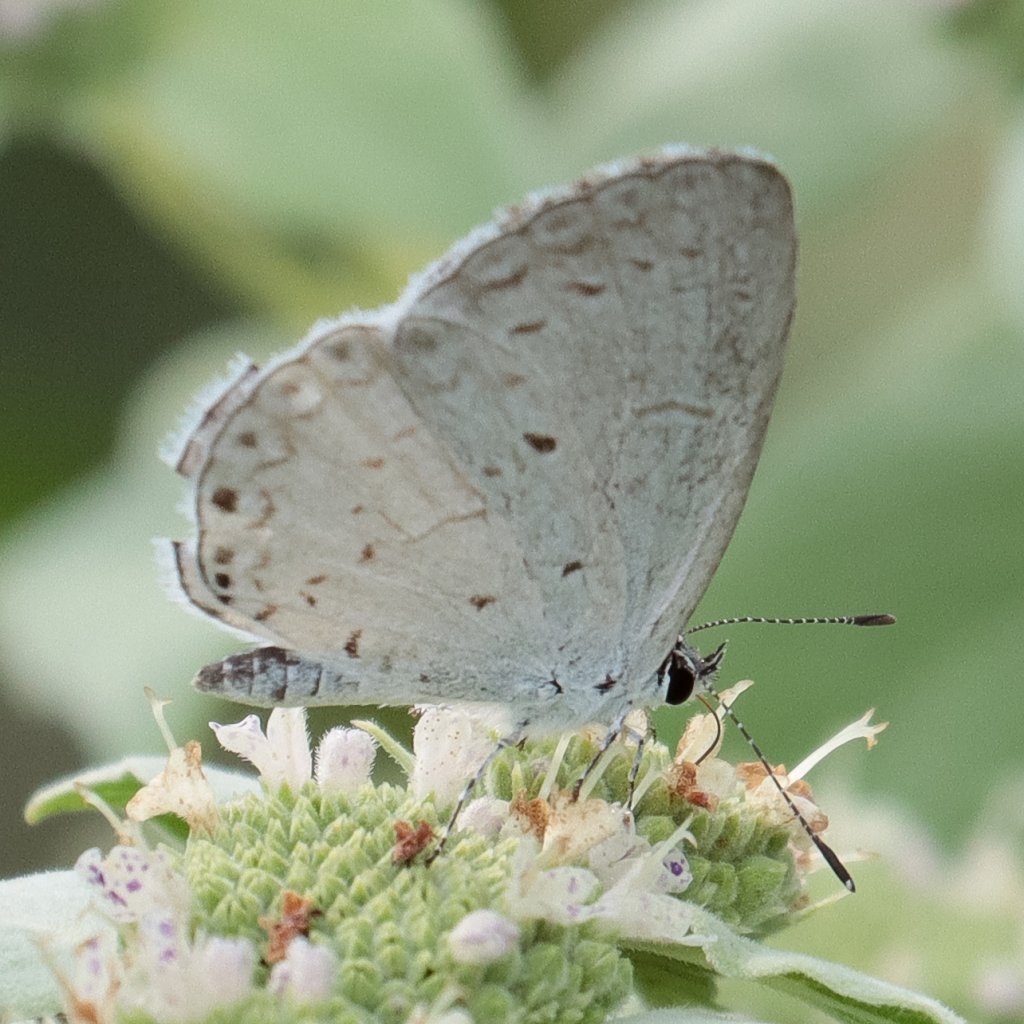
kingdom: Animalia
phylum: Arthropoda
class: Insecta
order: Lepidoptera
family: Lycaenidae
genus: Cyaniris
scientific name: Cyaniris neglecta
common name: Summer Azure
